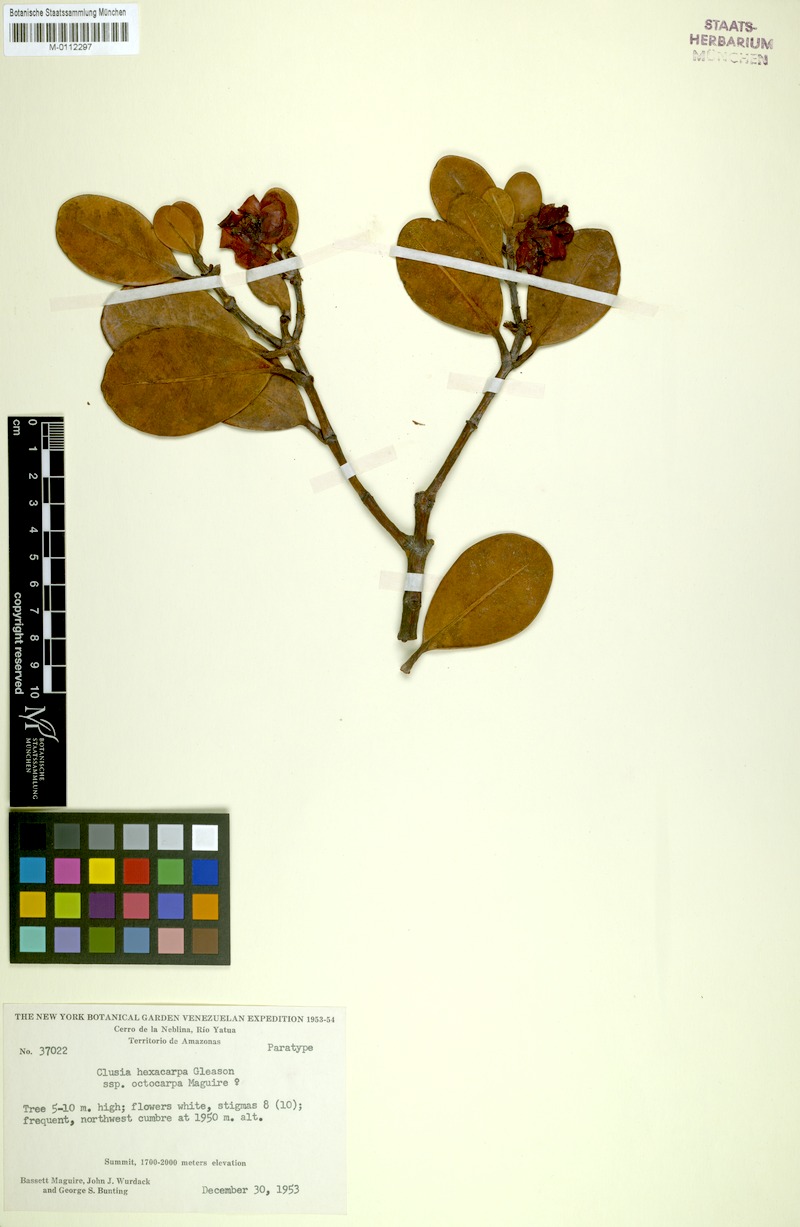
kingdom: Plantae
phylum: Tracheophyta
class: Magnoliopsida
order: Malpighiales
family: Clusiaceae
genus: Clusia
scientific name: Clusia hexacarpa
